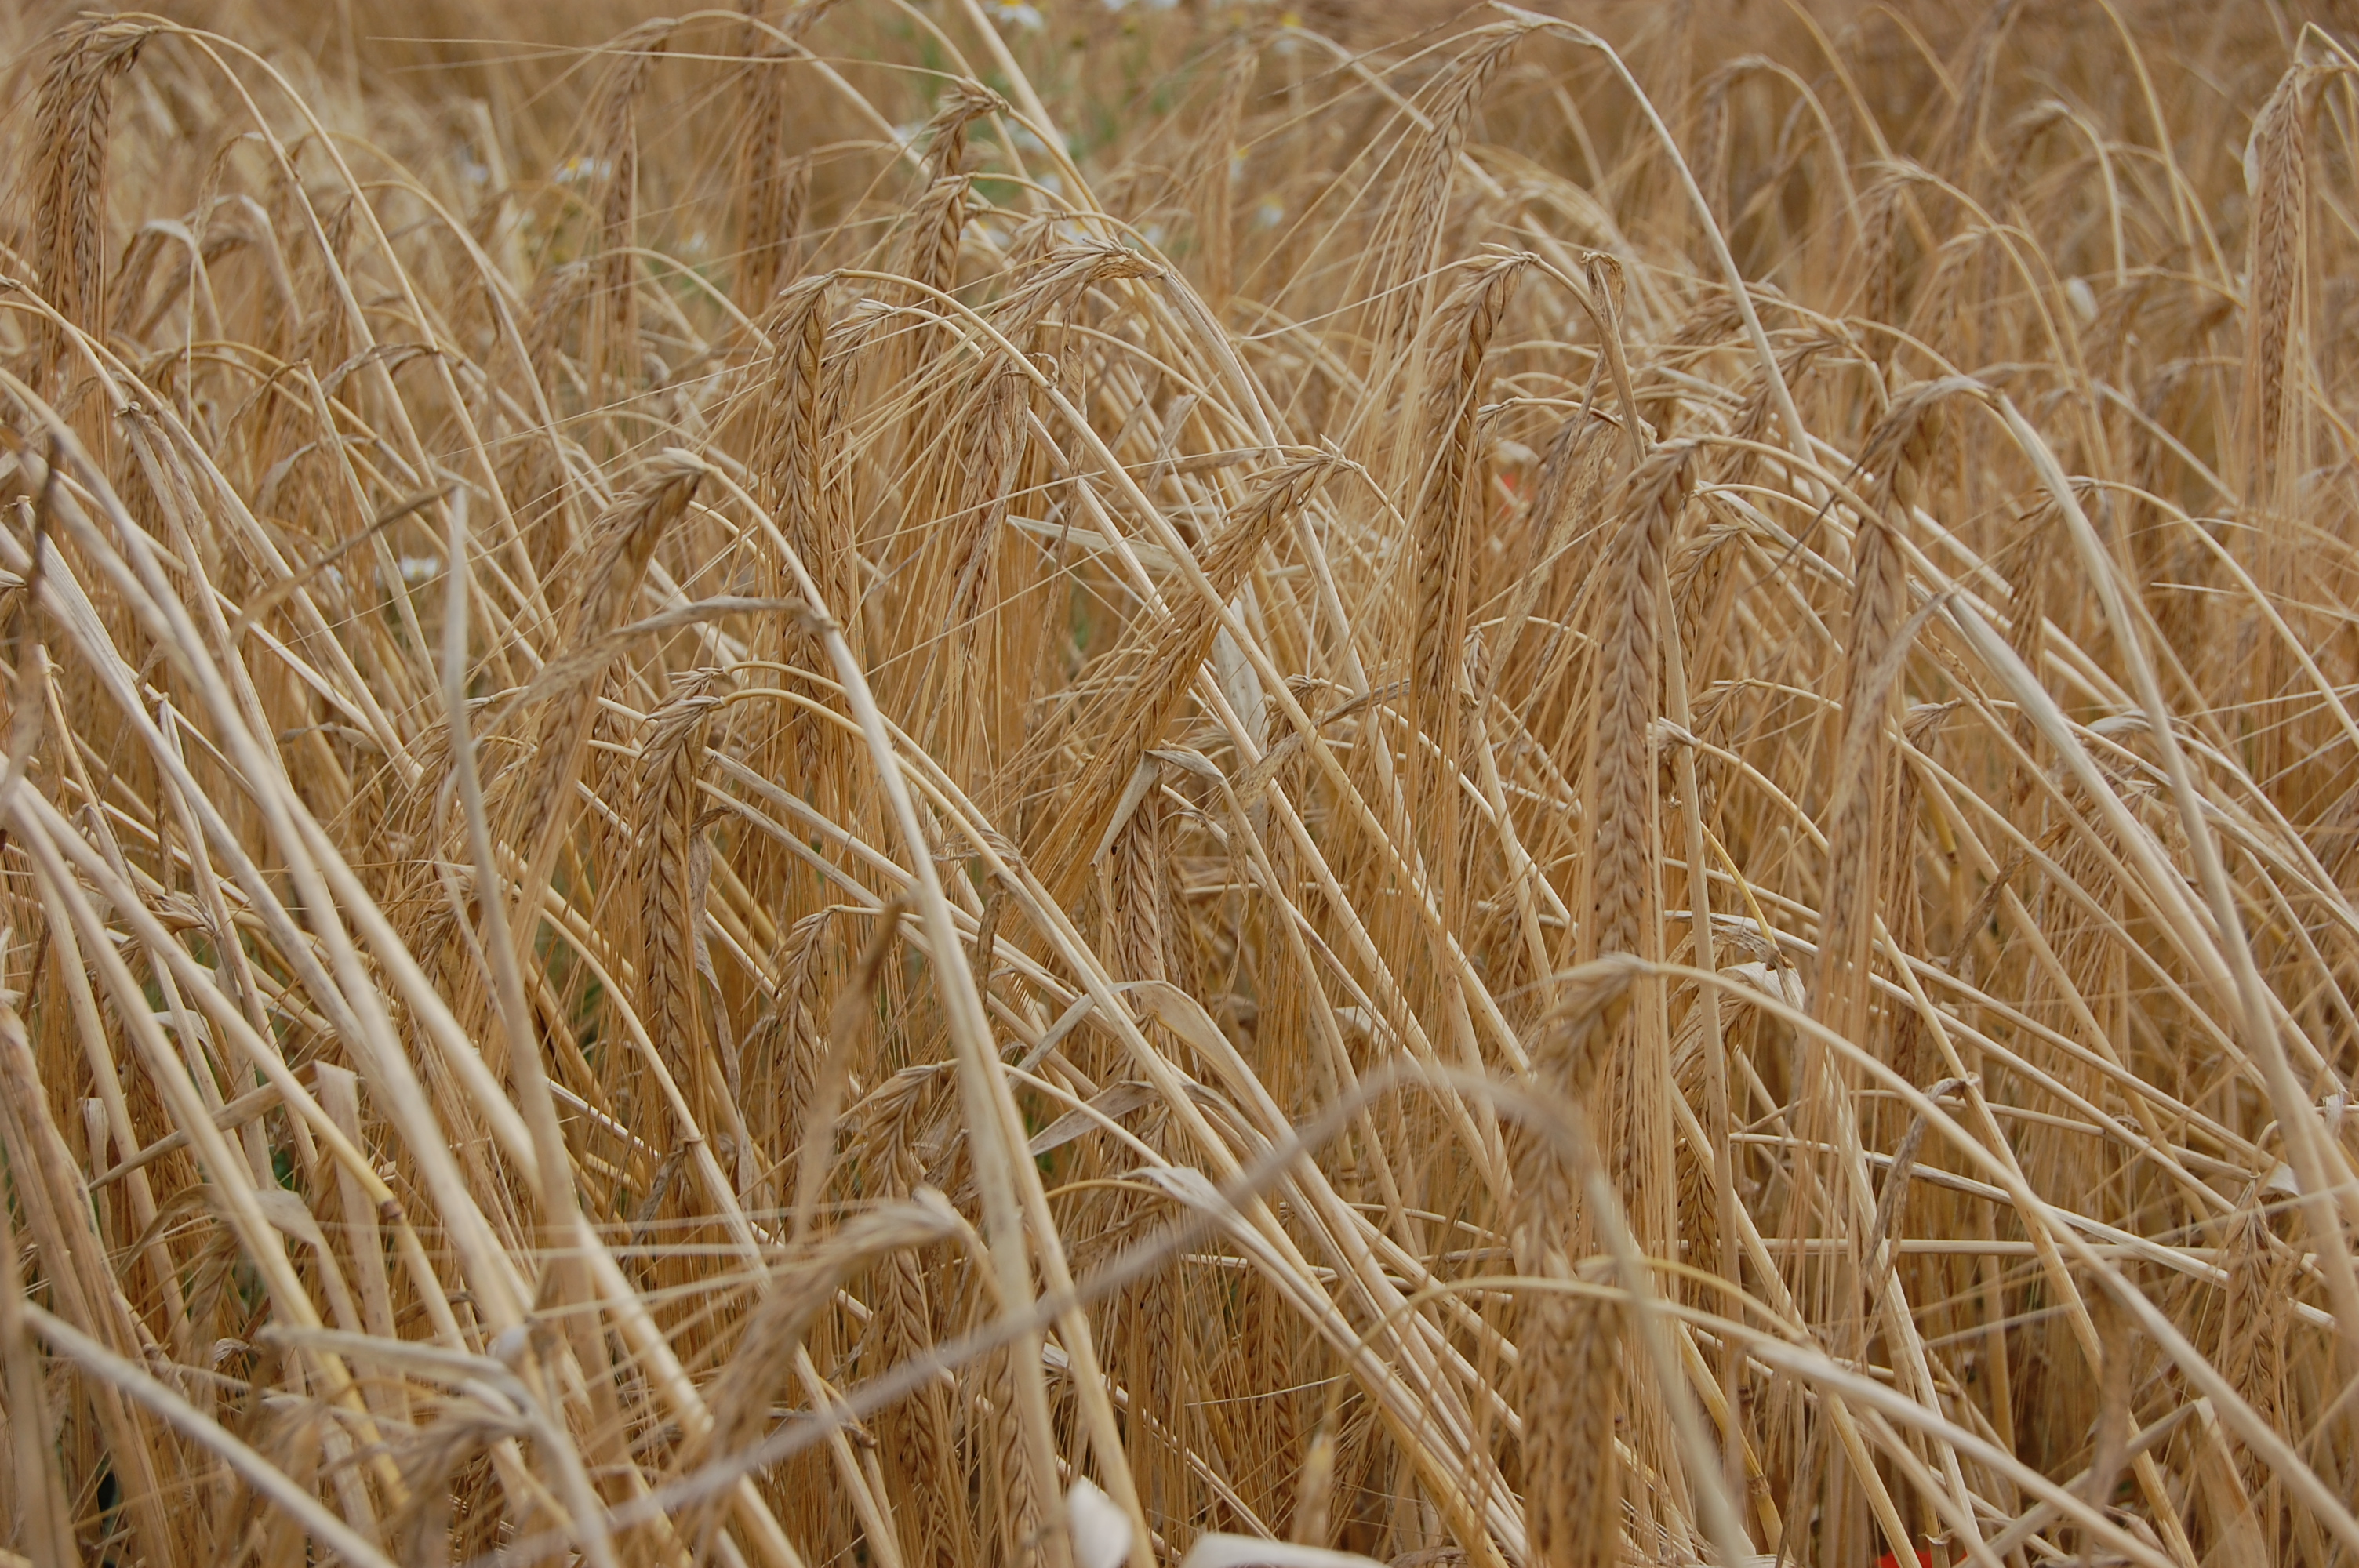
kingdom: Plantae
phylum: Tracheophyta
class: Liliopsida
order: Poales
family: Poaceae
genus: Hordeum
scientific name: Hordeum vulgare
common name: Common barley
